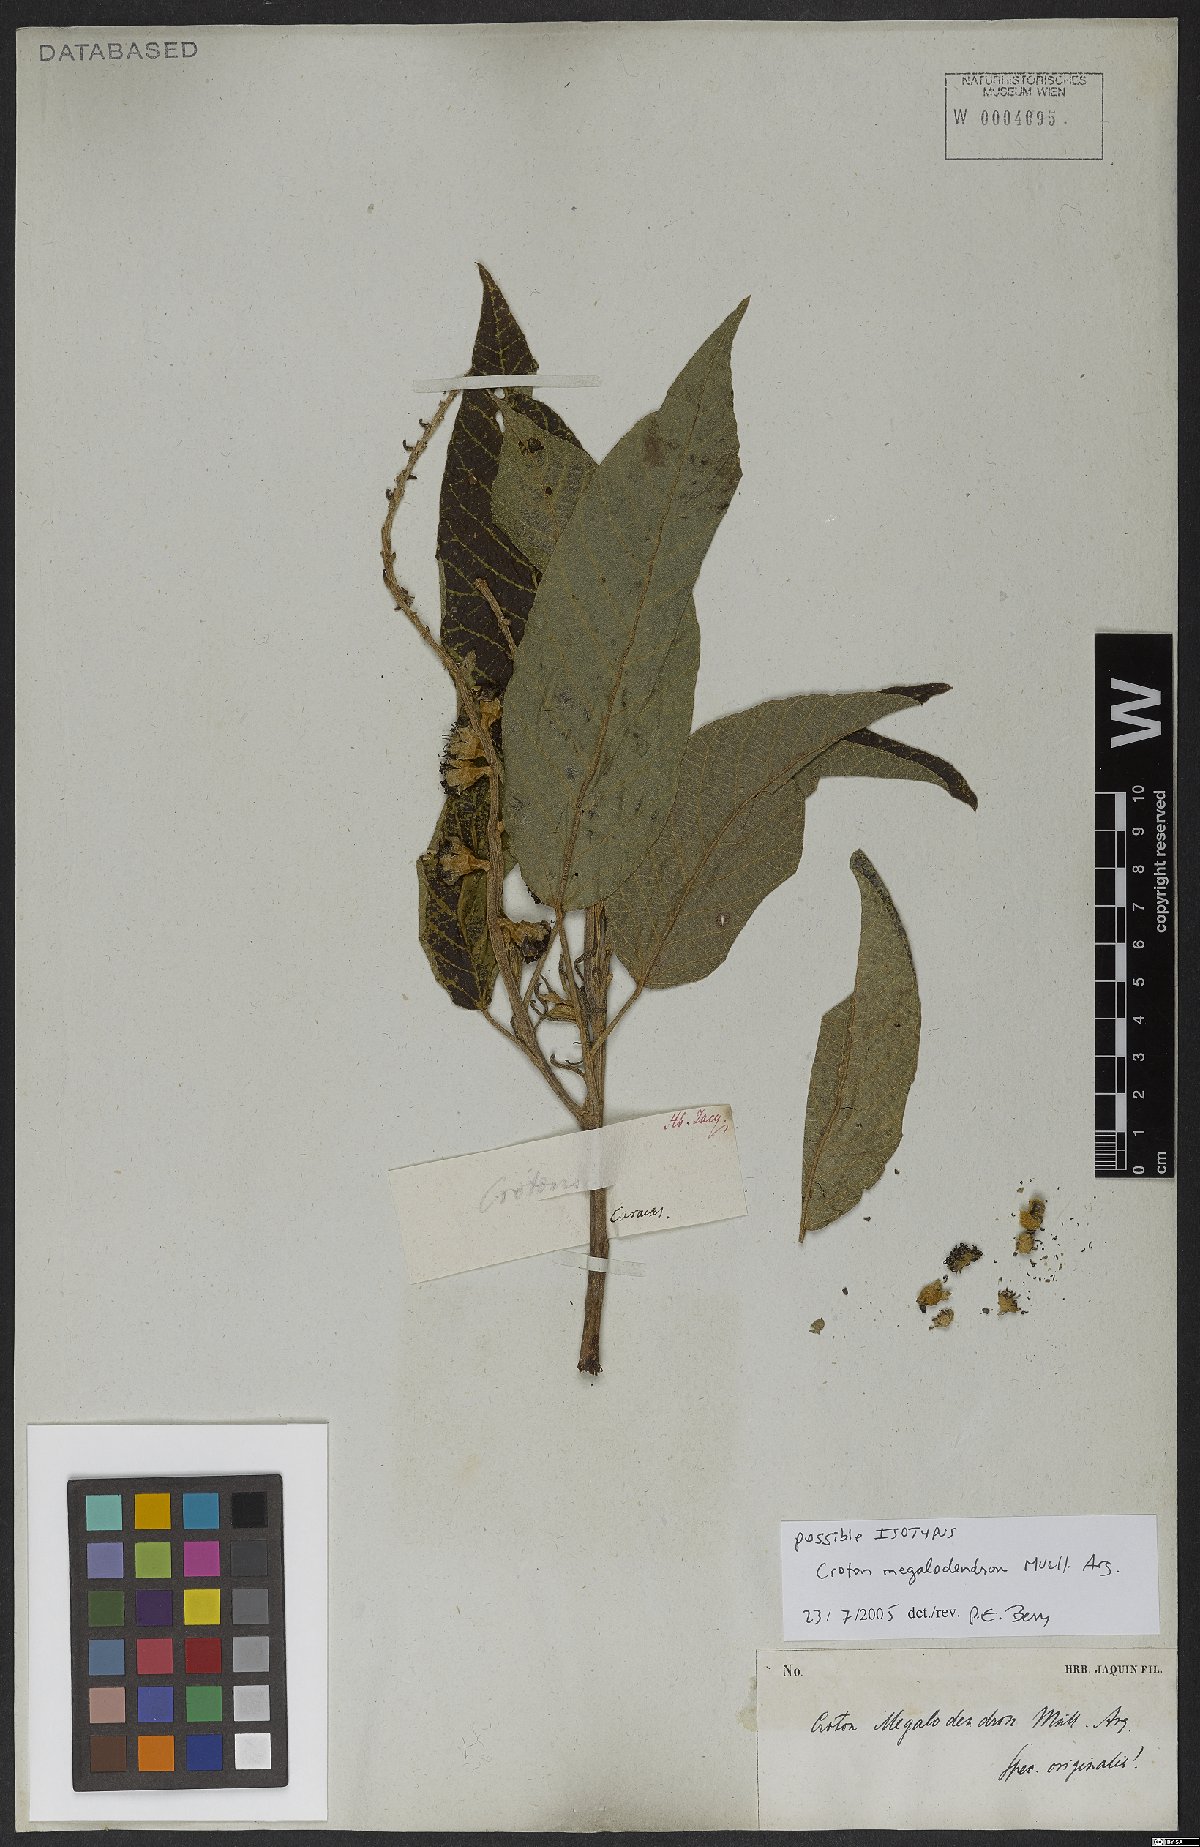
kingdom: Plantae
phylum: Tracheophyta
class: Magnoliopsida
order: Malpighiales
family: Euphorbiaceae
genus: Croton
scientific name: Croton megalodendron
